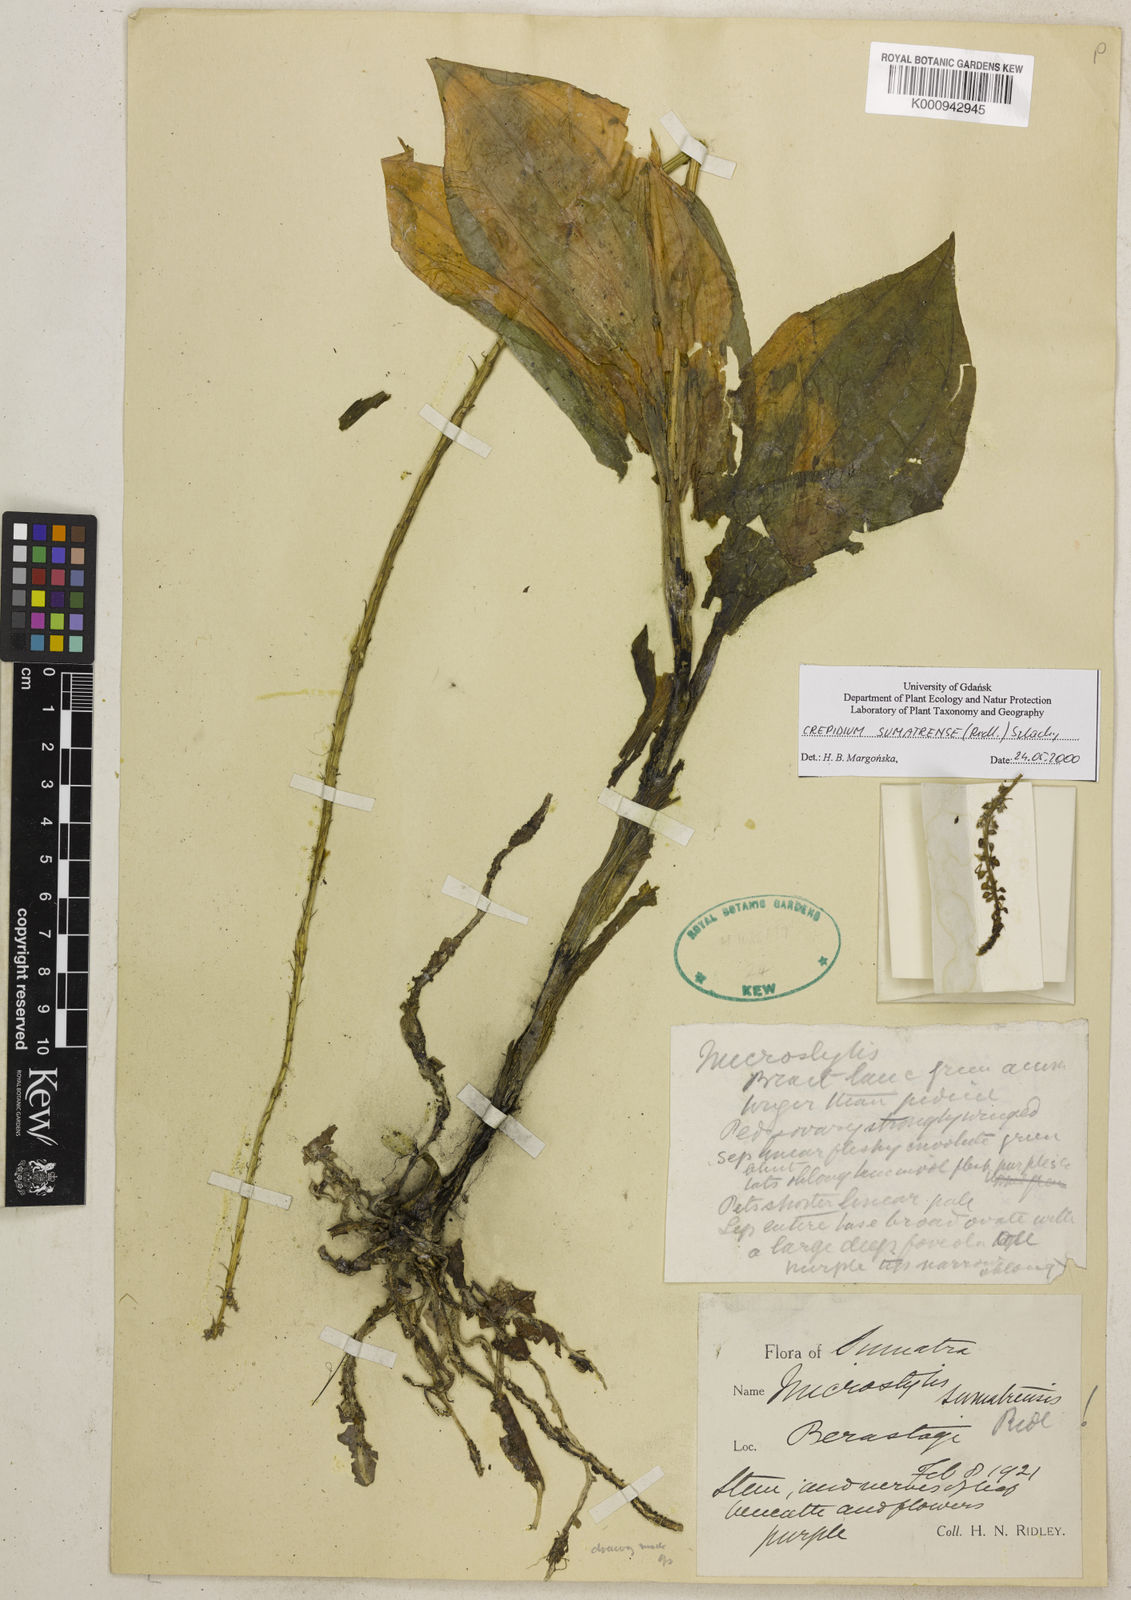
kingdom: Plantae
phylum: Tracheophyta
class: Liliopsida
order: Asparagales
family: Orchidaceae
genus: Crepidium
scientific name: Crepidium sumatrense
